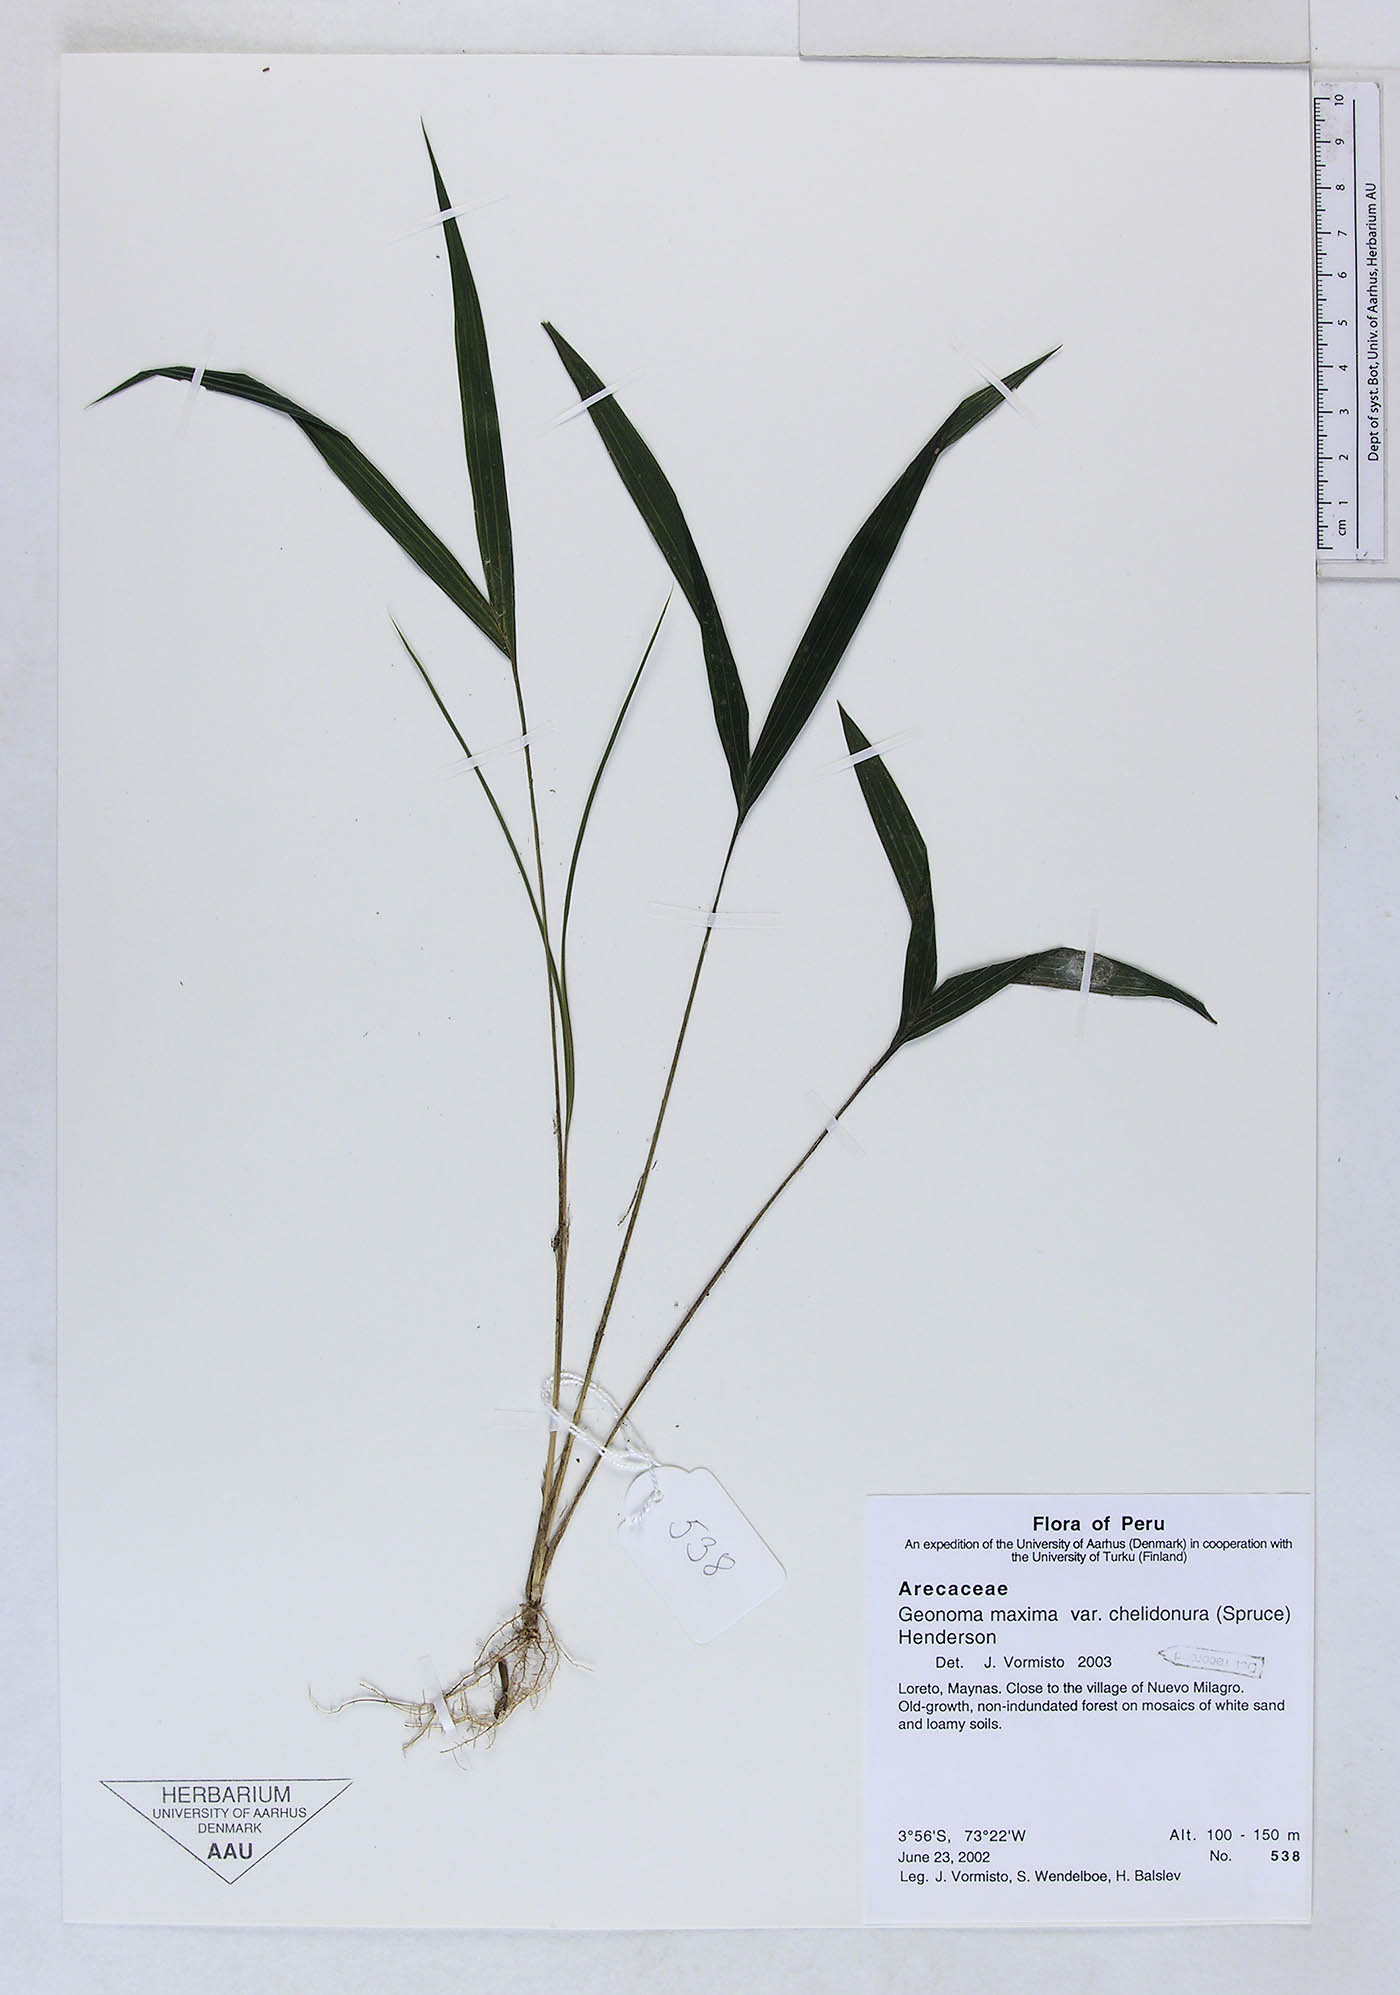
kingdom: Plantae
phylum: Tracheophyta
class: Liliopsida
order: Arecales
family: Arecaceae
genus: Geonoma
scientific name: Geonoma maxima
